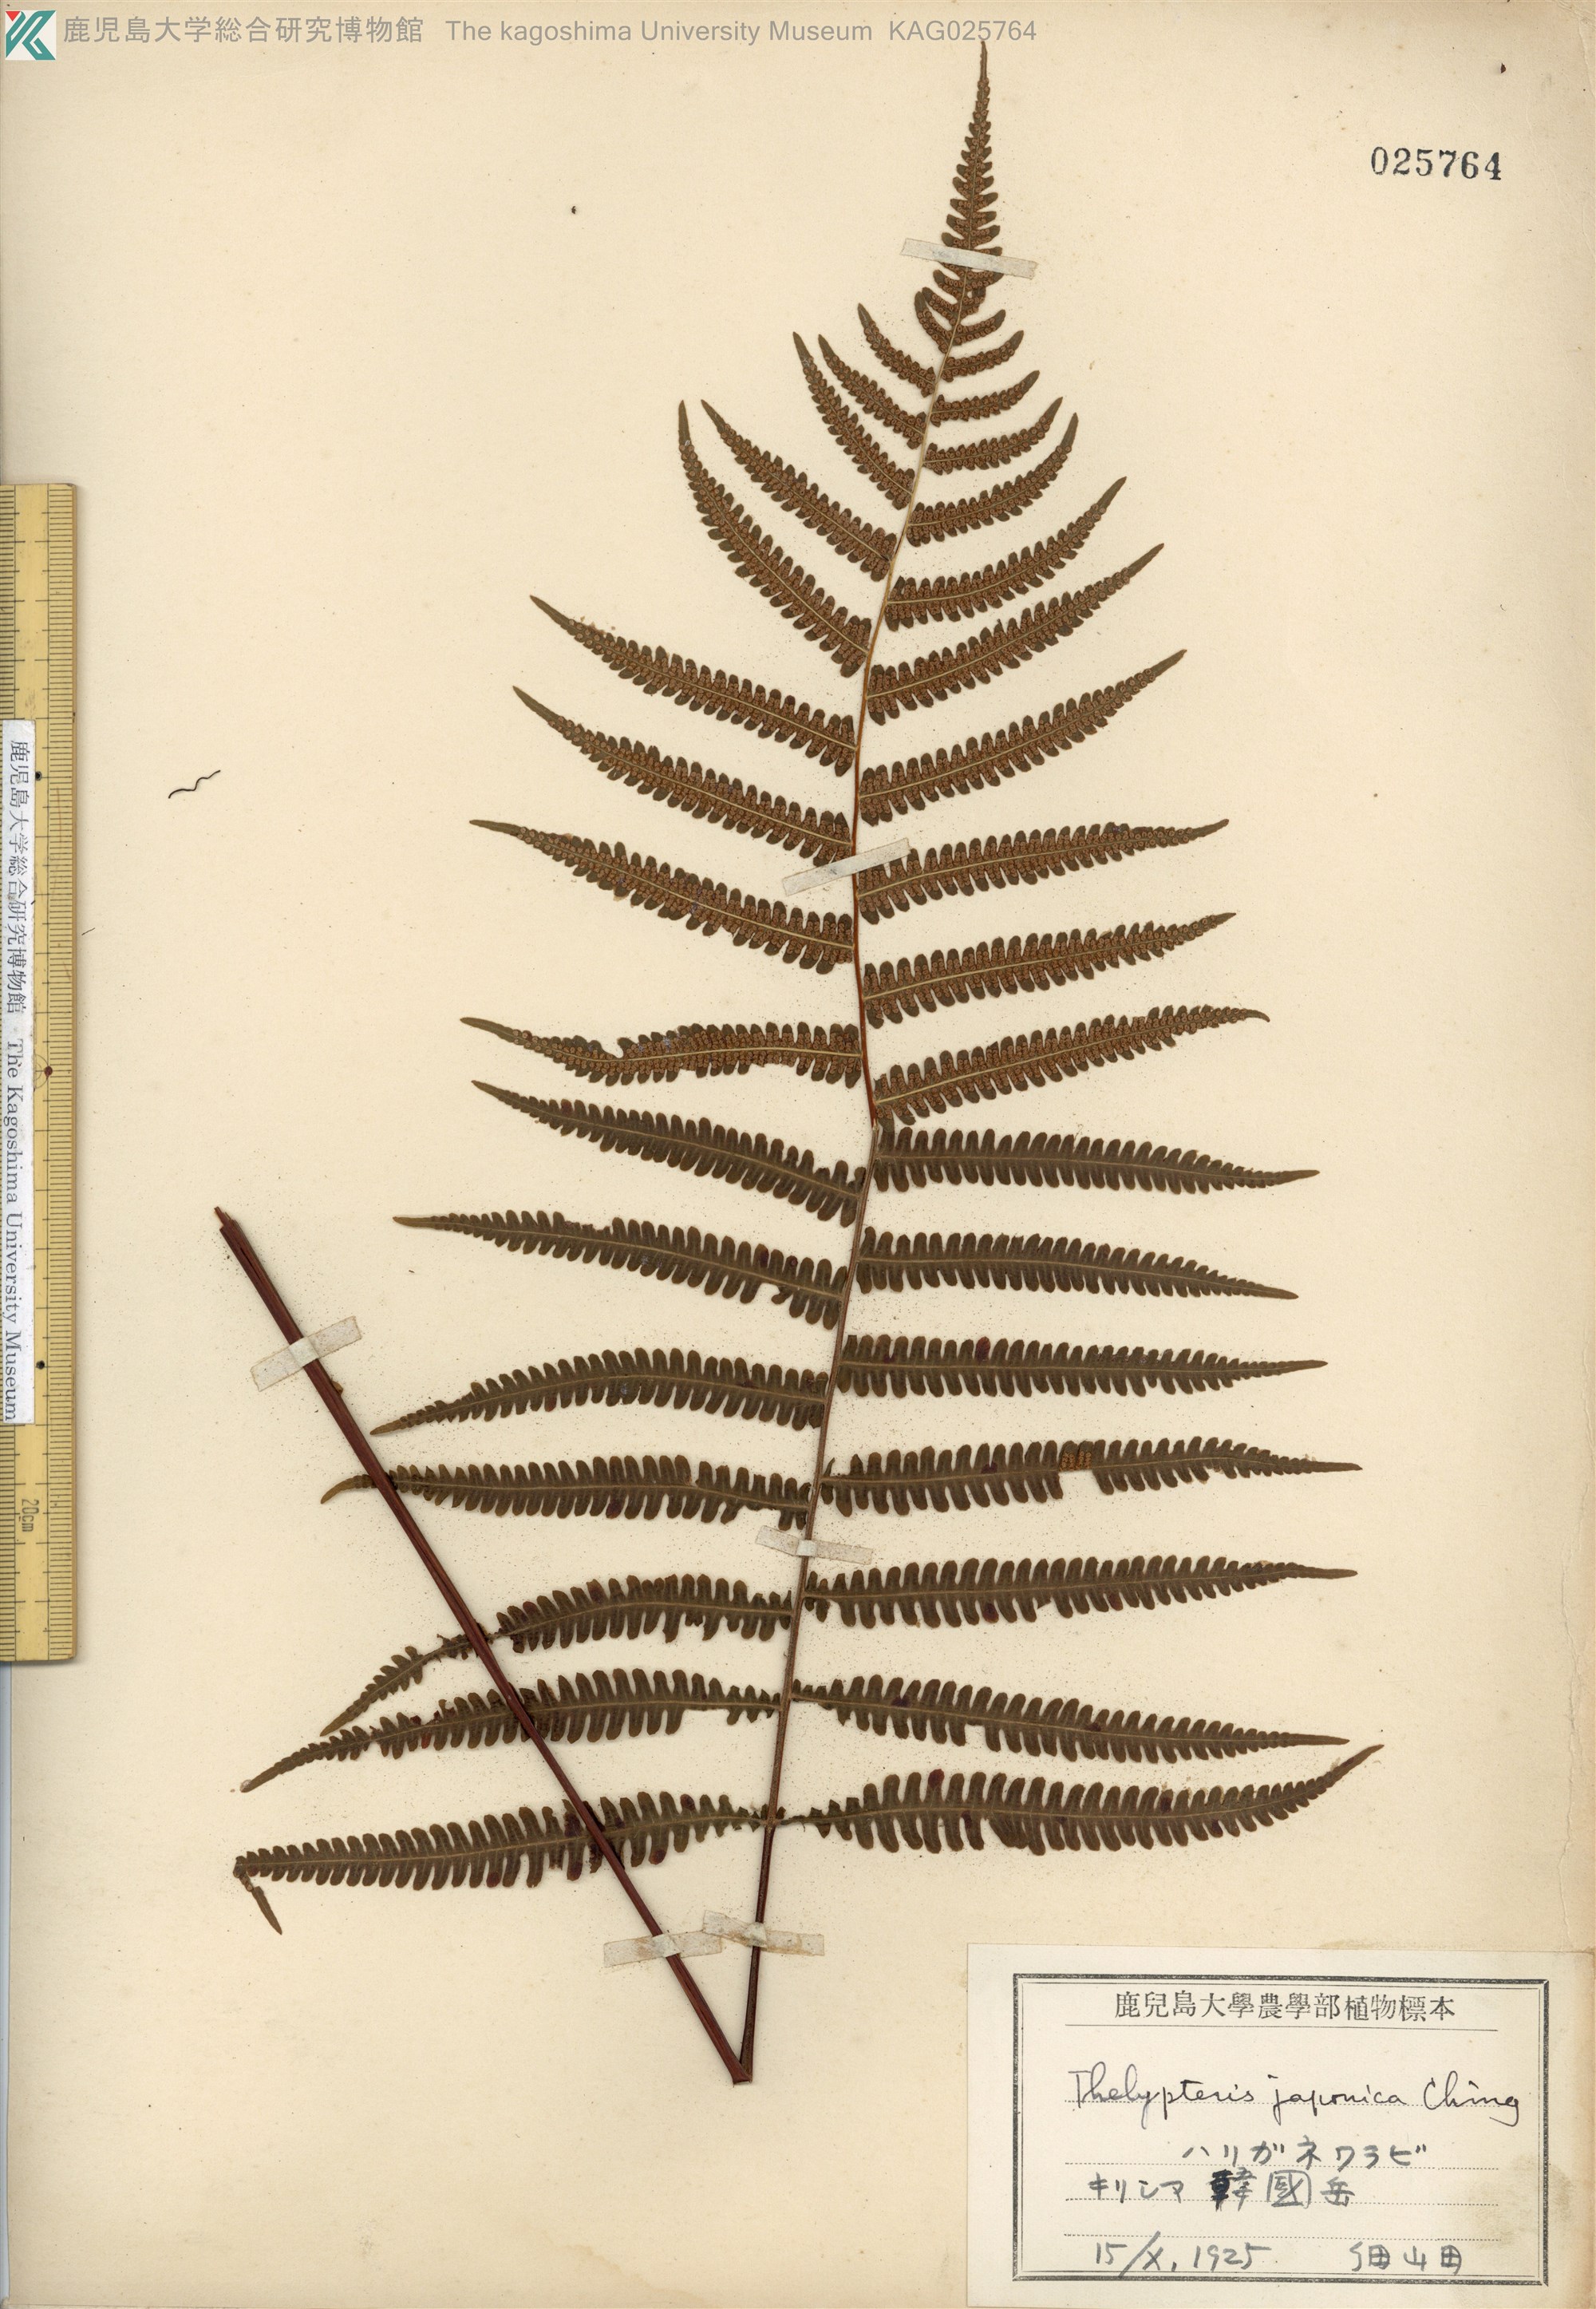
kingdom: Plantae
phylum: Tracheophyta
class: Polypodiopsida
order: Polypodiales
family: Thelypteridaceae
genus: Coryphopteris
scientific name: Coryphopteris japonica
